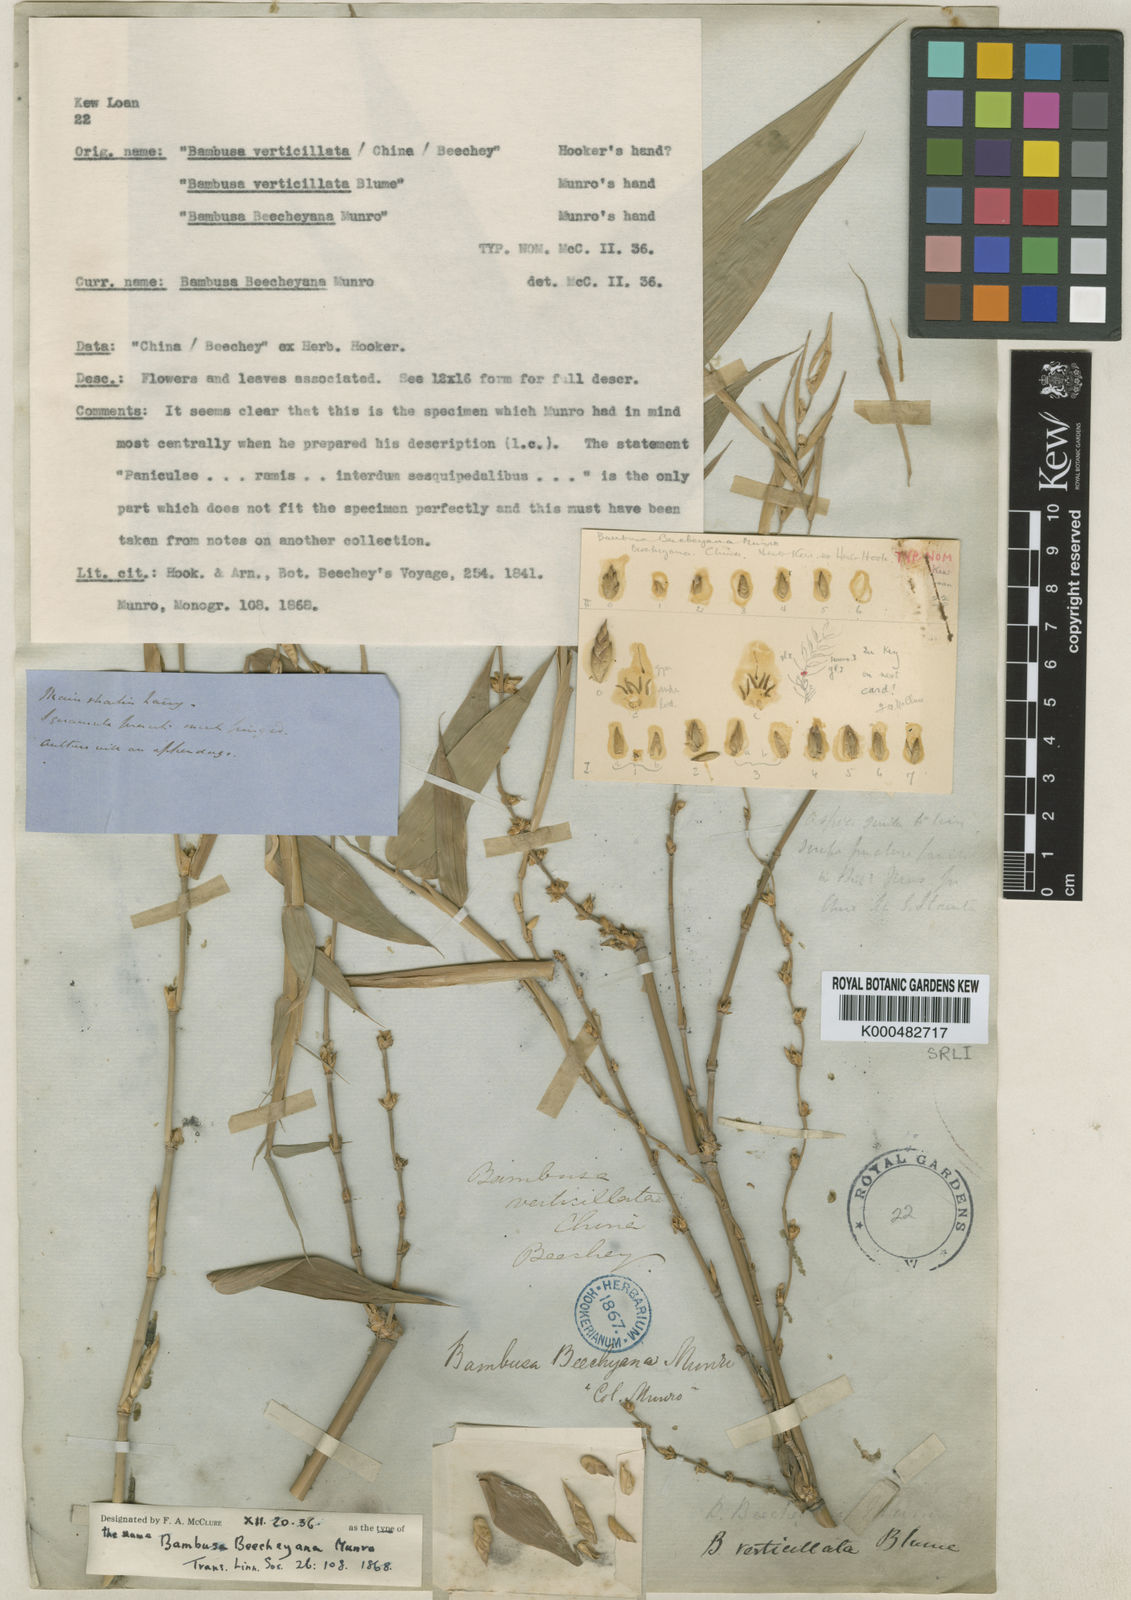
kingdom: Plantae
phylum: Tracheophyta
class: Liliopsida
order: Poales
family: Poaceae
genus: Bambusa
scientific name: Bambusa beecheyana
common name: Beechey's bamboo
